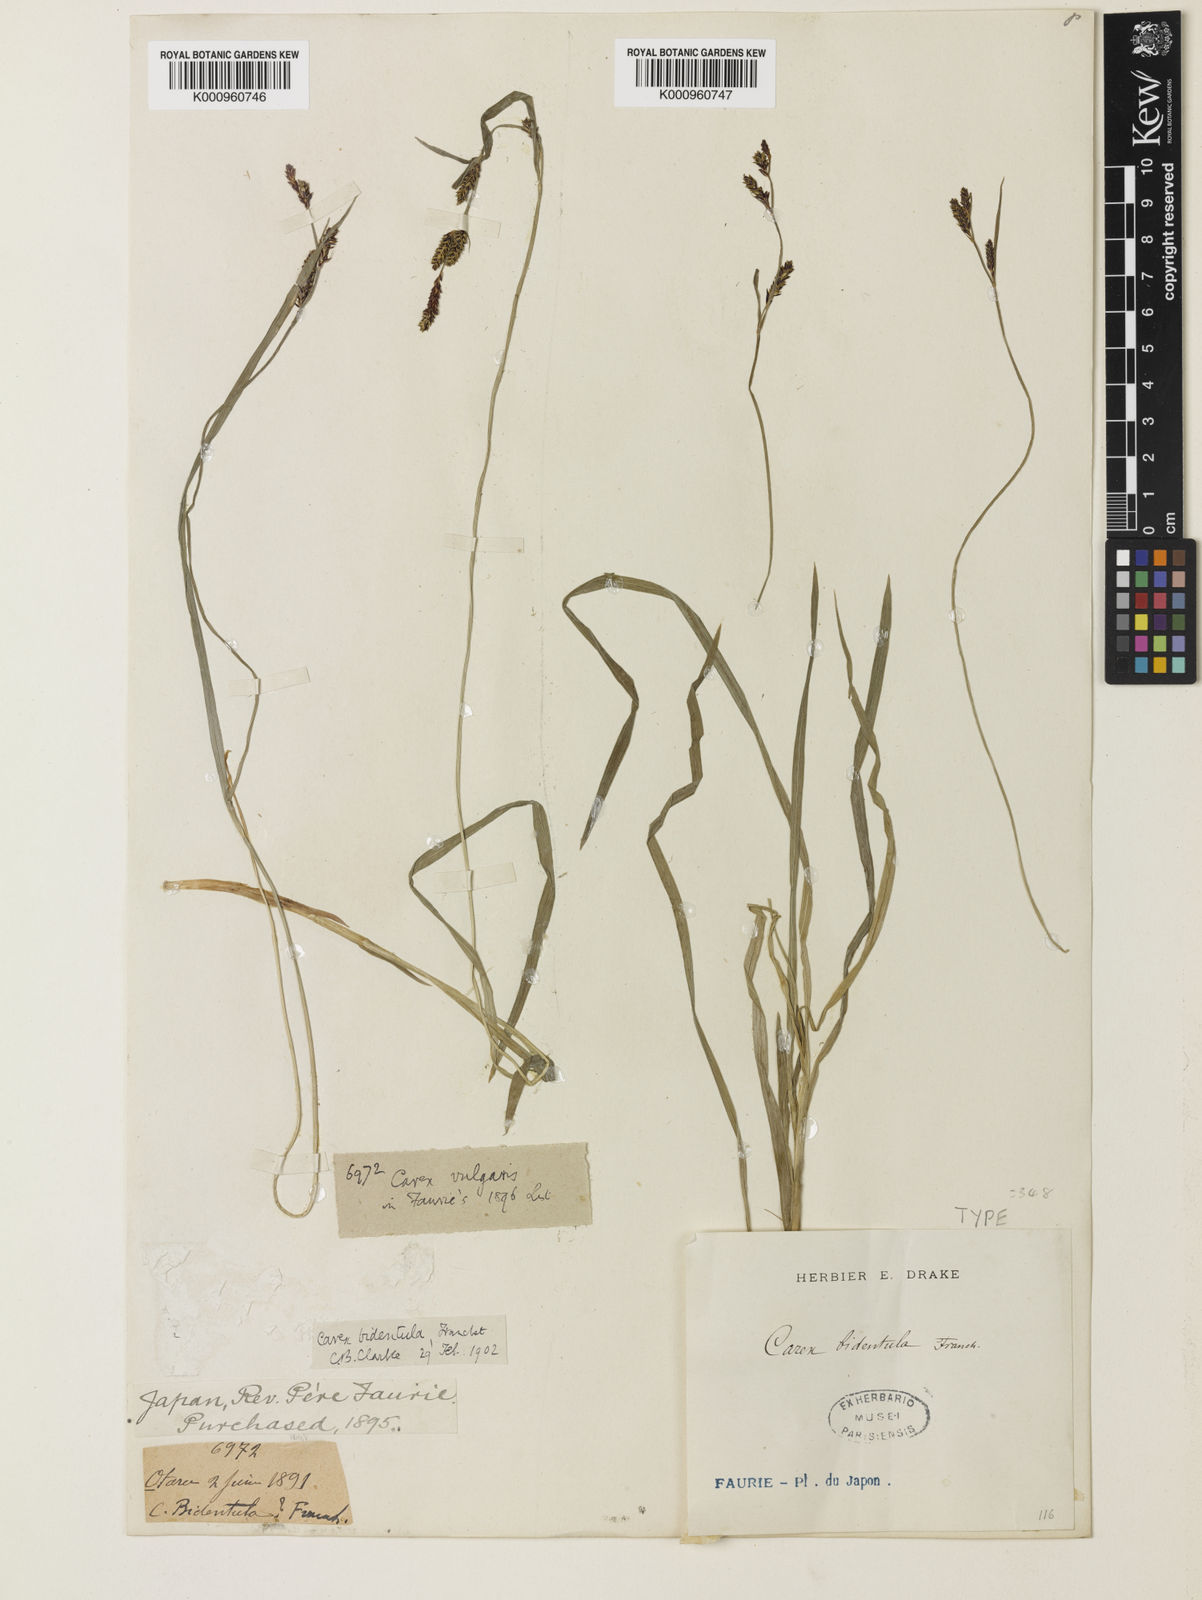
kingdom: Plantae
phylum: Tracheophyta
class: Liliopsida
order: Poales
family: Cyperaceae
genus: Carex
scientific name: Carex augustinowiczii
